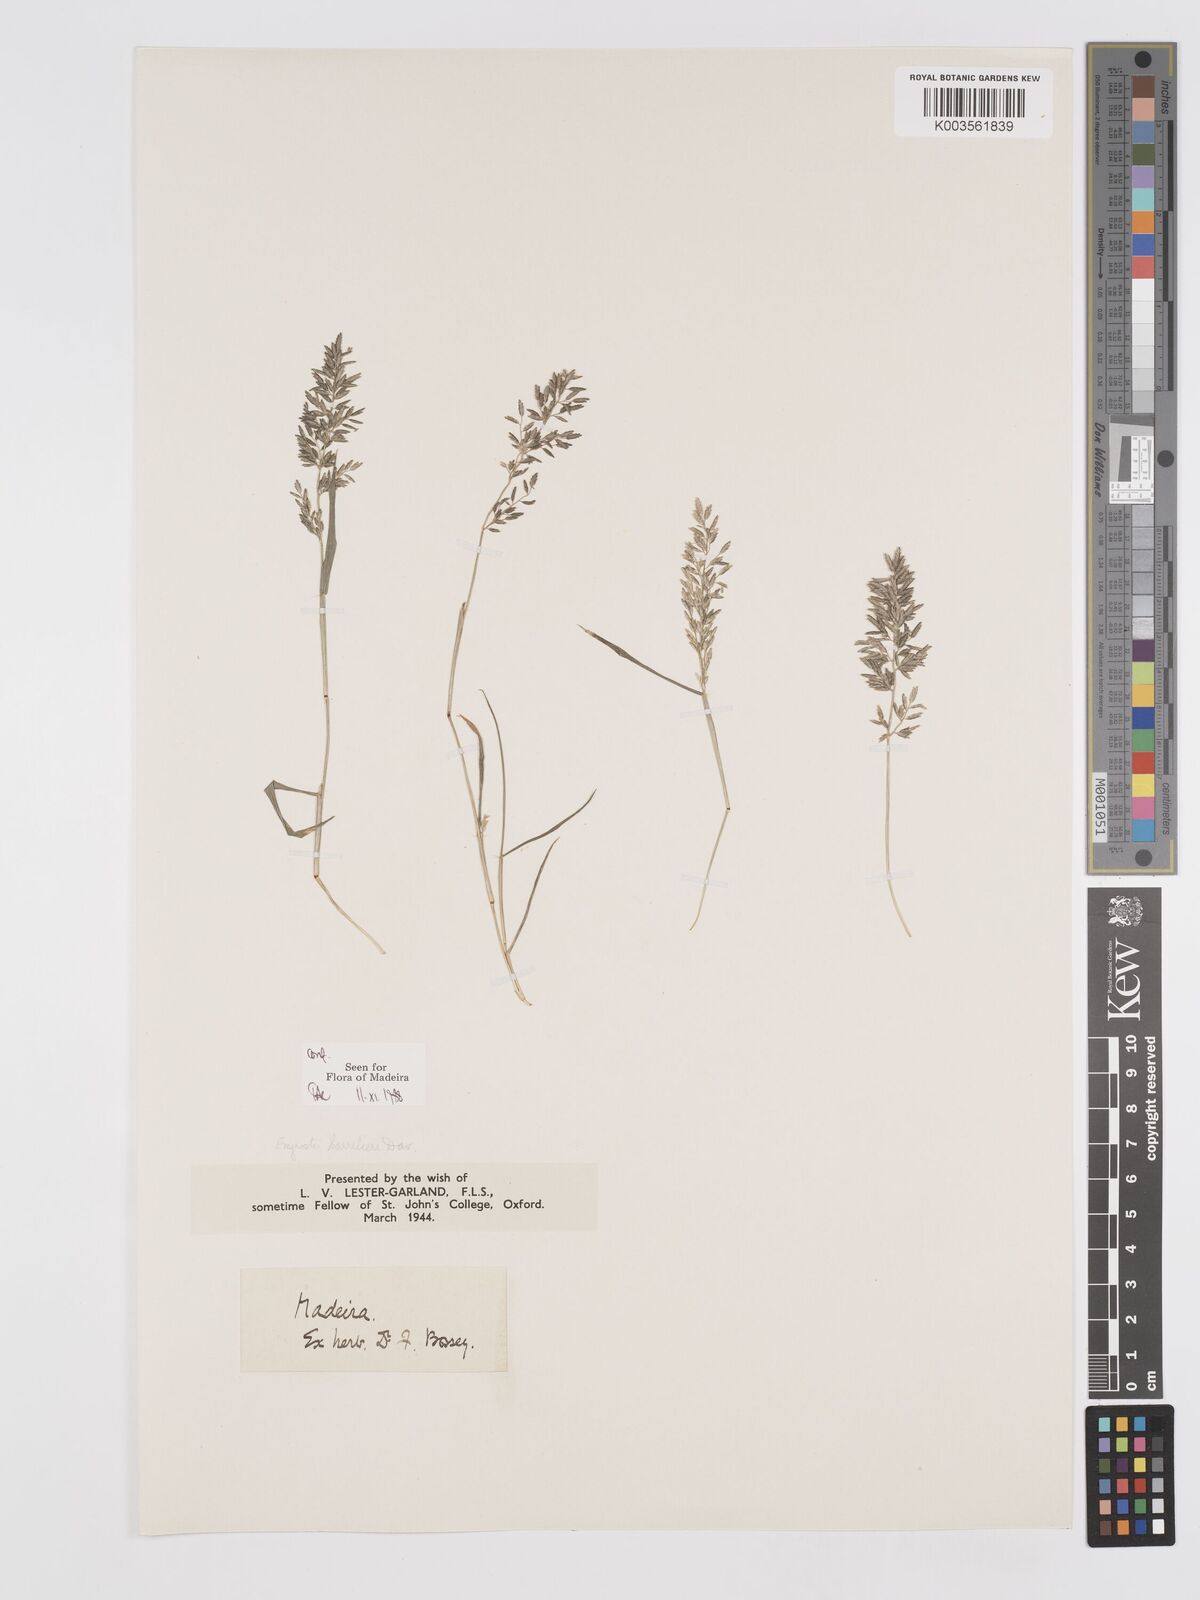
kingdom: Plantae
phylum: Tracheophyta
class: Liliopsida
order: Poales
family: Poaceae
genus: Eragrostis
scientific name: Eragrostis barrelieri
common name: Mediterranean lovegrass
